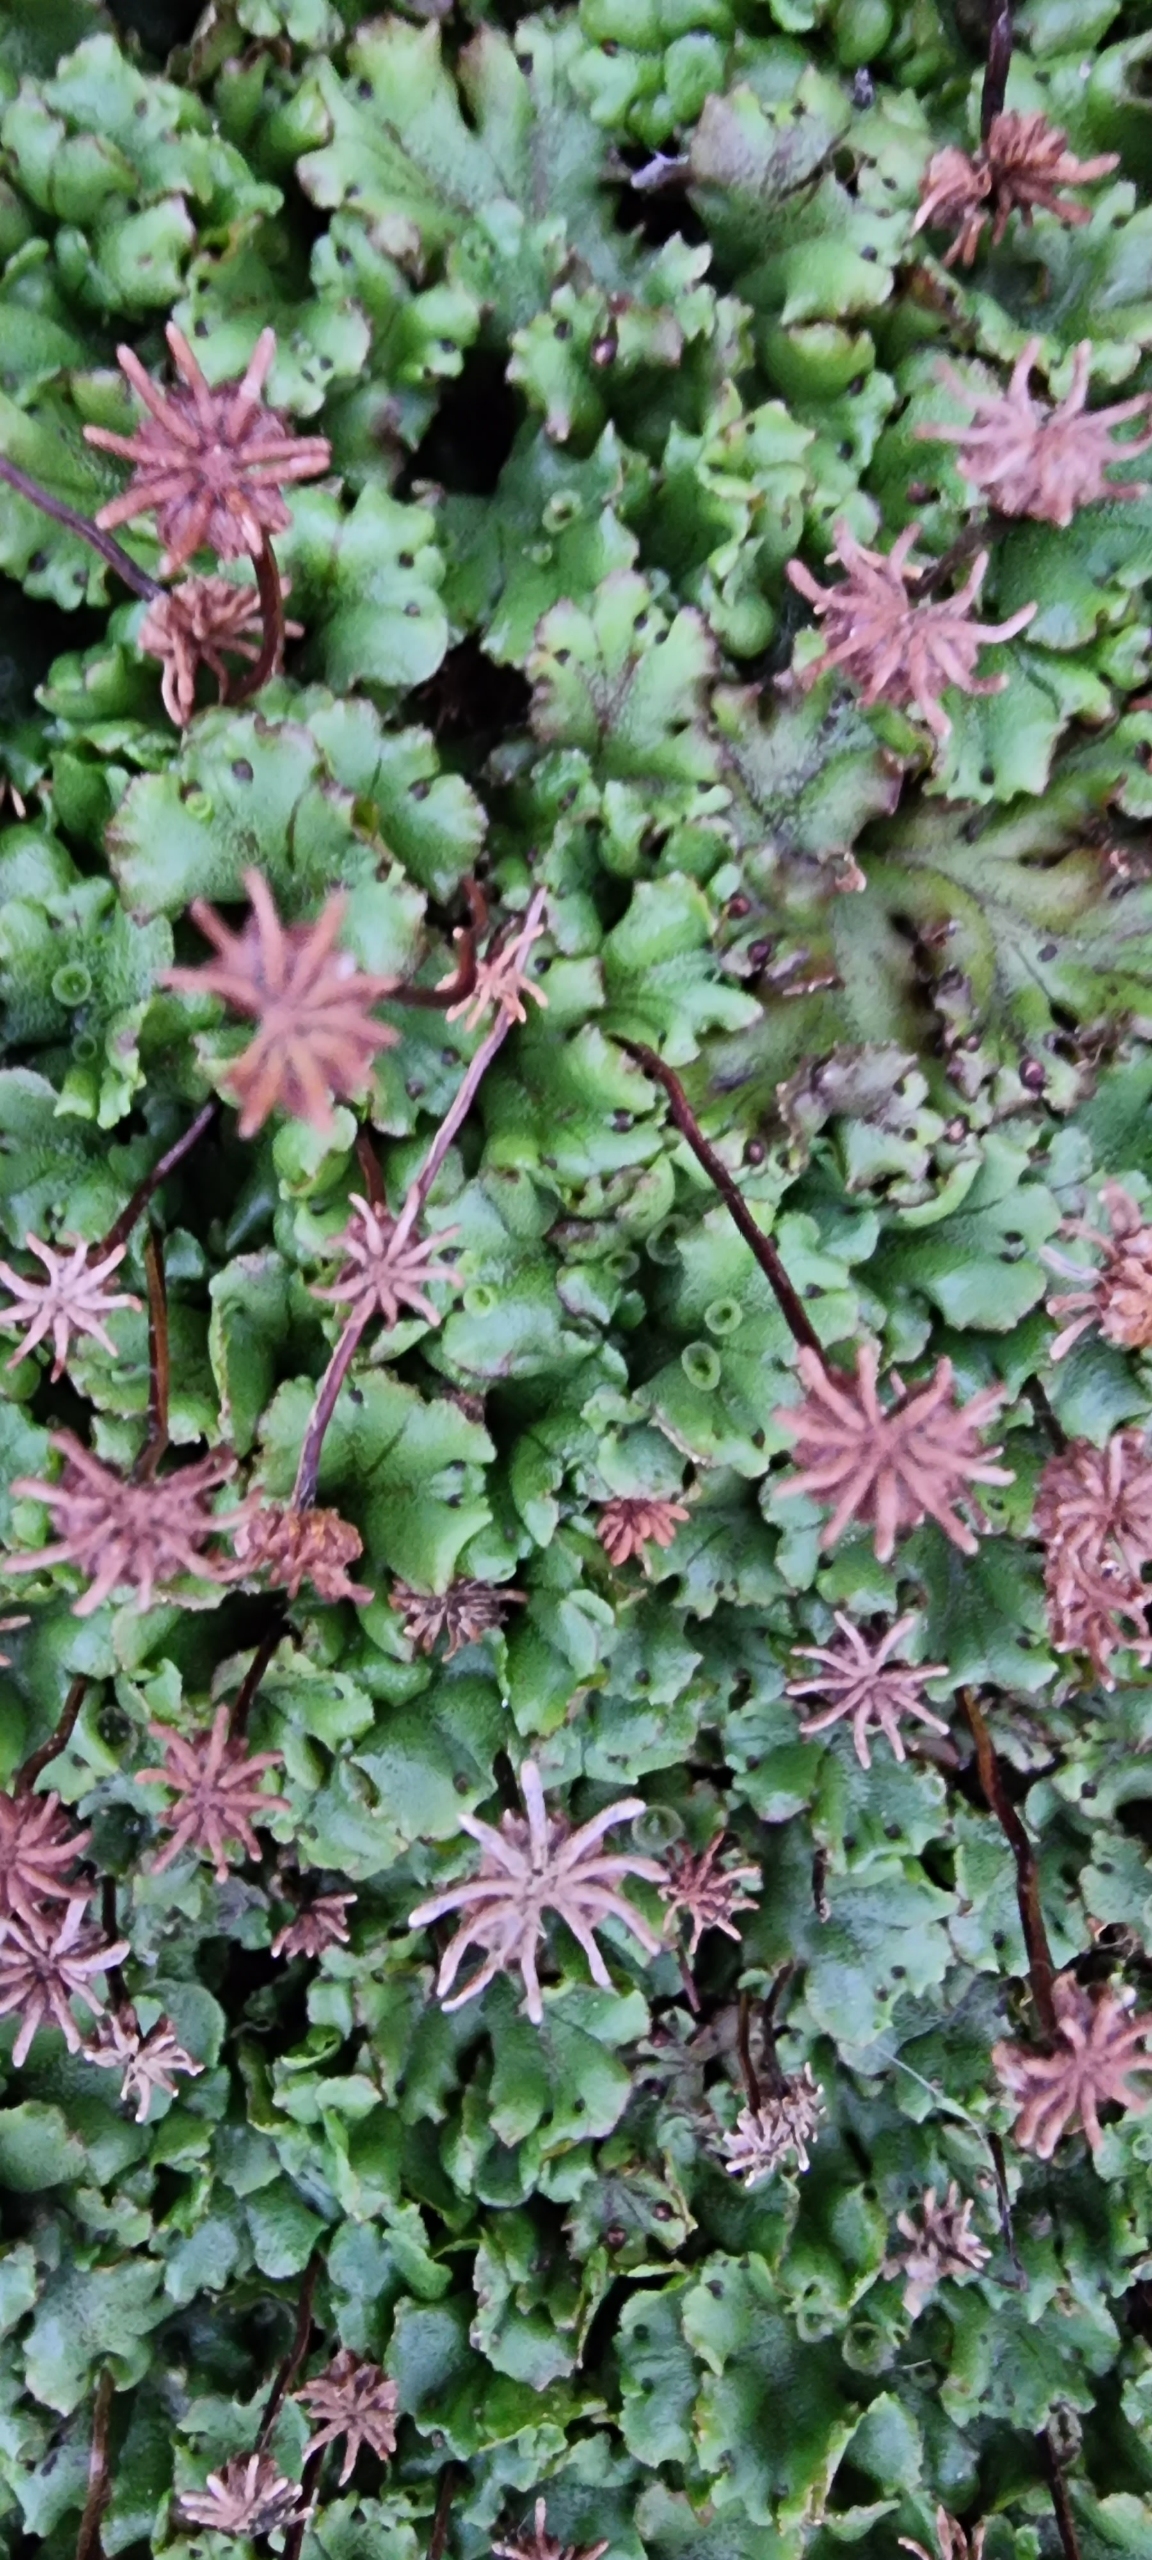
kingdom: Plantae
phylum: Marchantiophyta
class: Marchantiopsida
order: Marchantiales
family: Marchantiaceae
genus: Marchantia
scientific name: Marchantia polymorpha
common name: Almindelig lungemos (underart)
